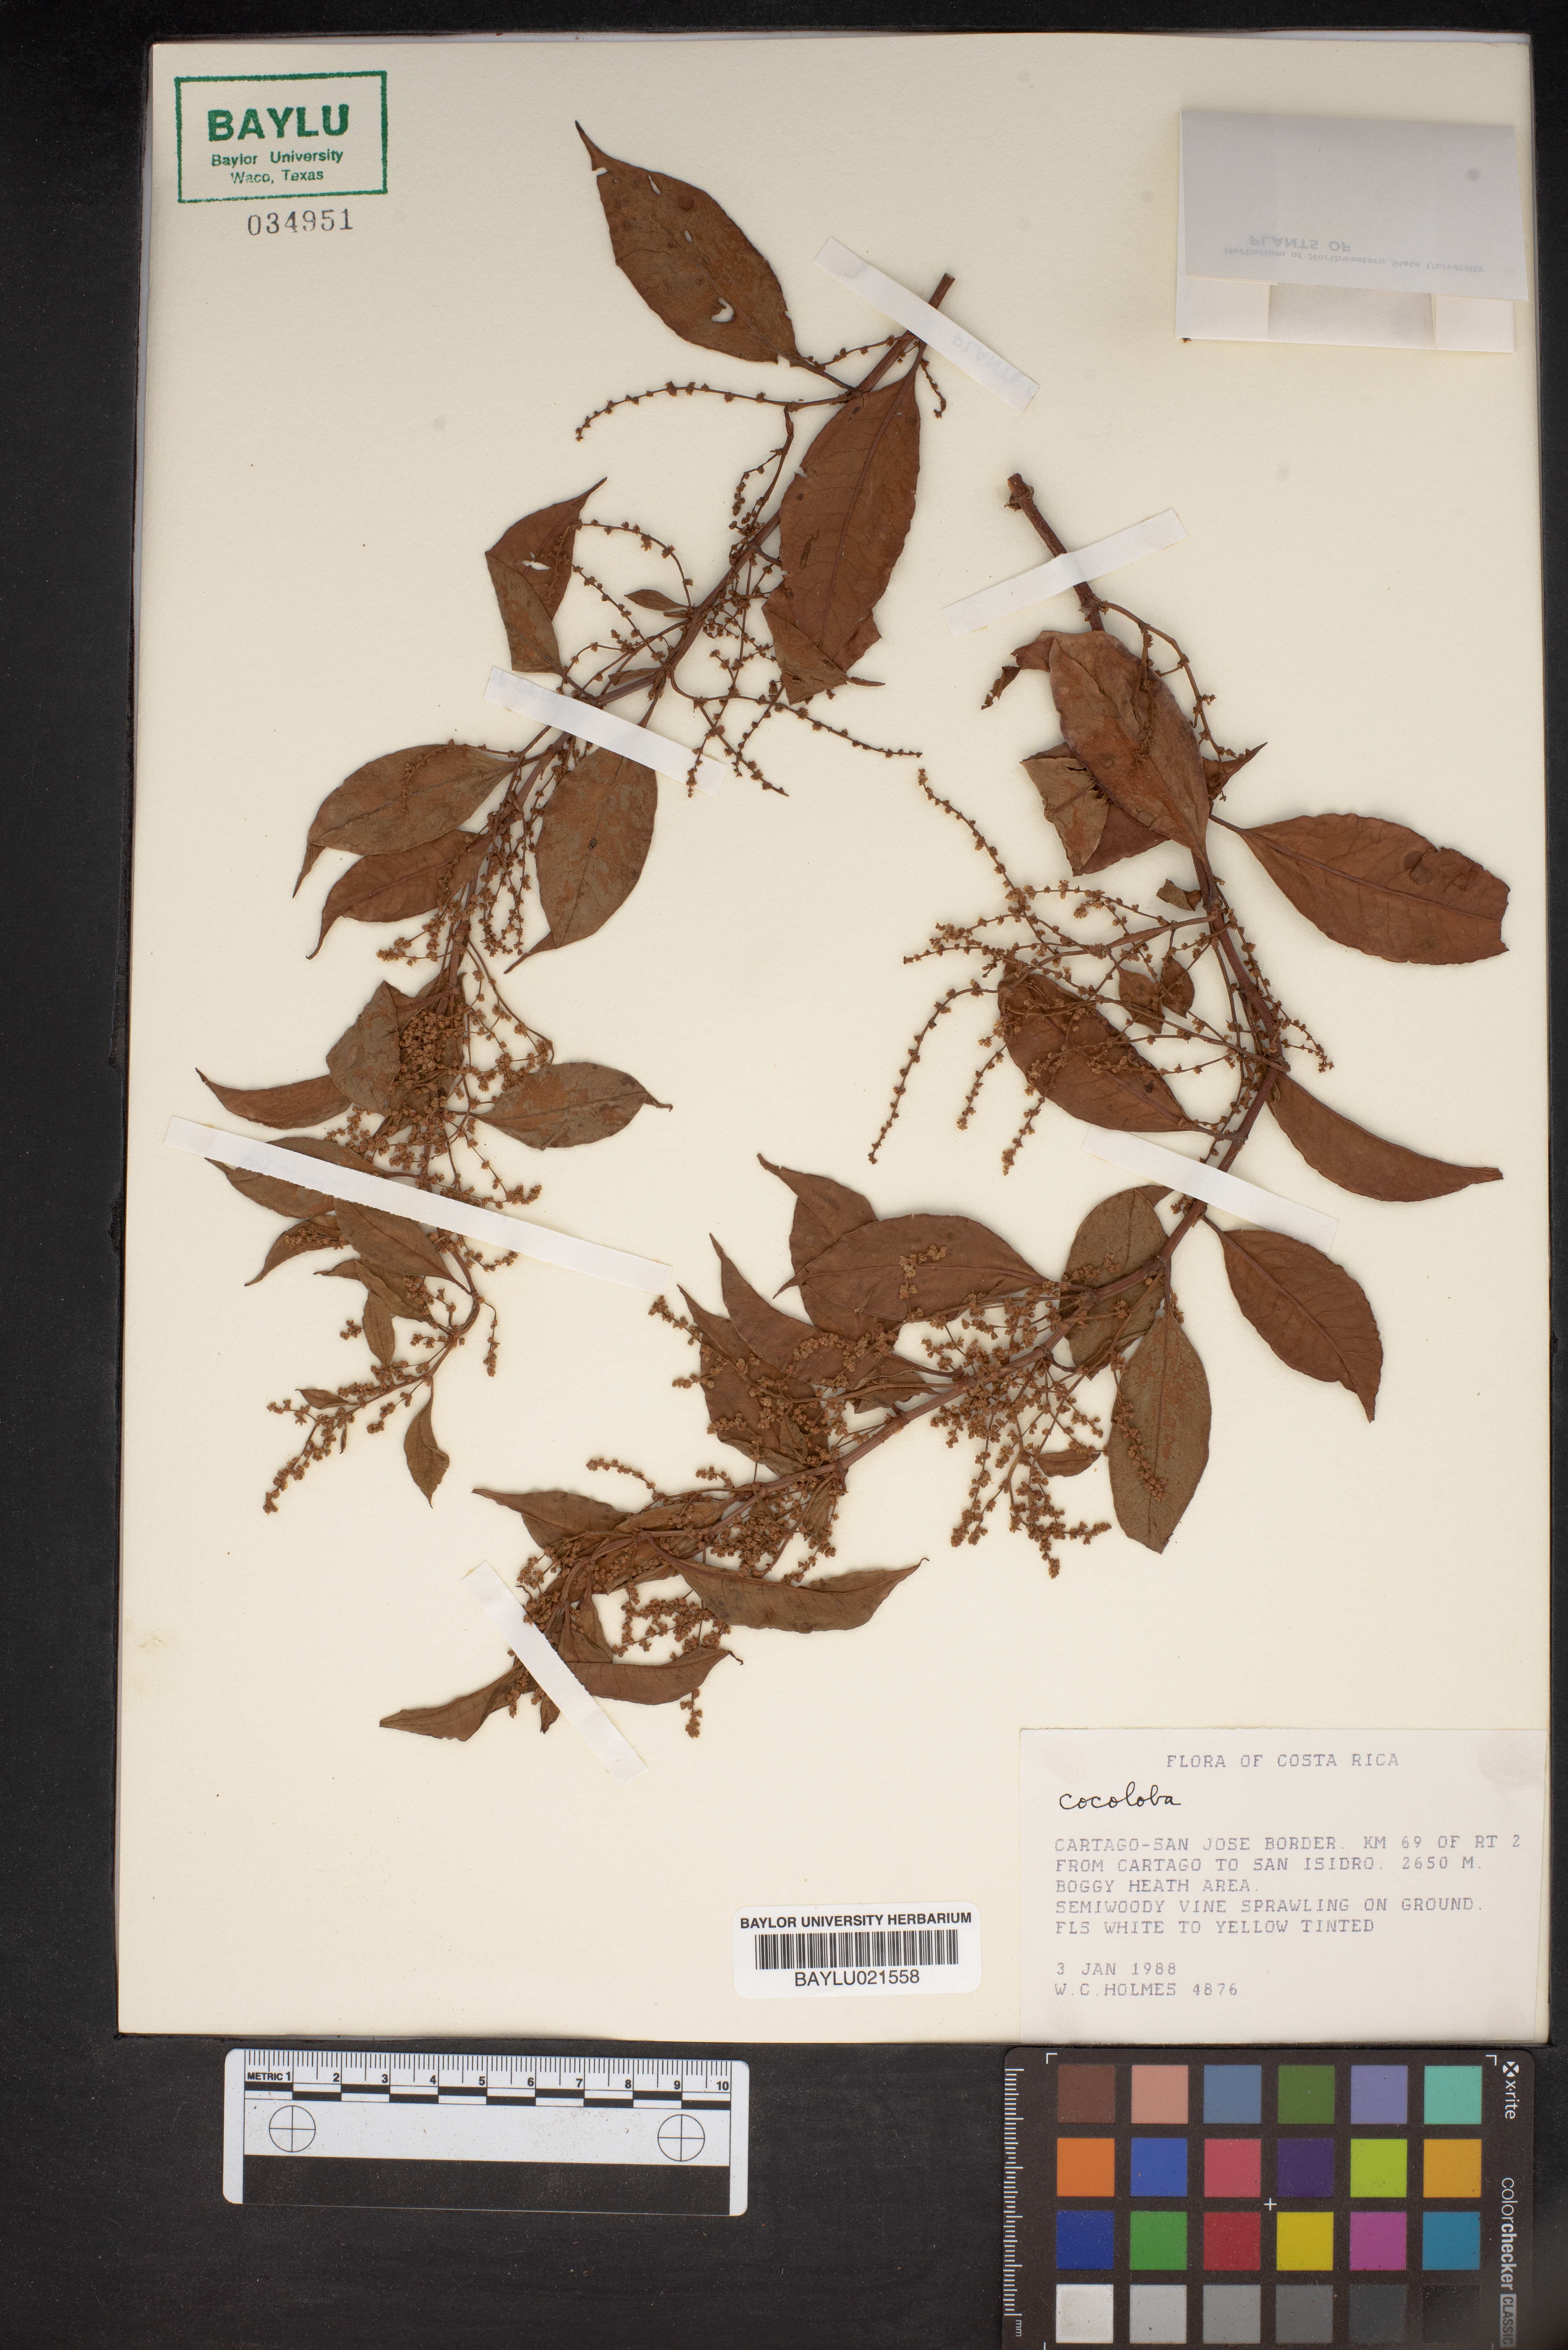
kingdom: Plantae
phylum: Tracheophyta
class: Magnoliopsida
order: Caryophyllales
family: Polygonaceae
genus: Cocoloba
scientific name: Cocoloba
